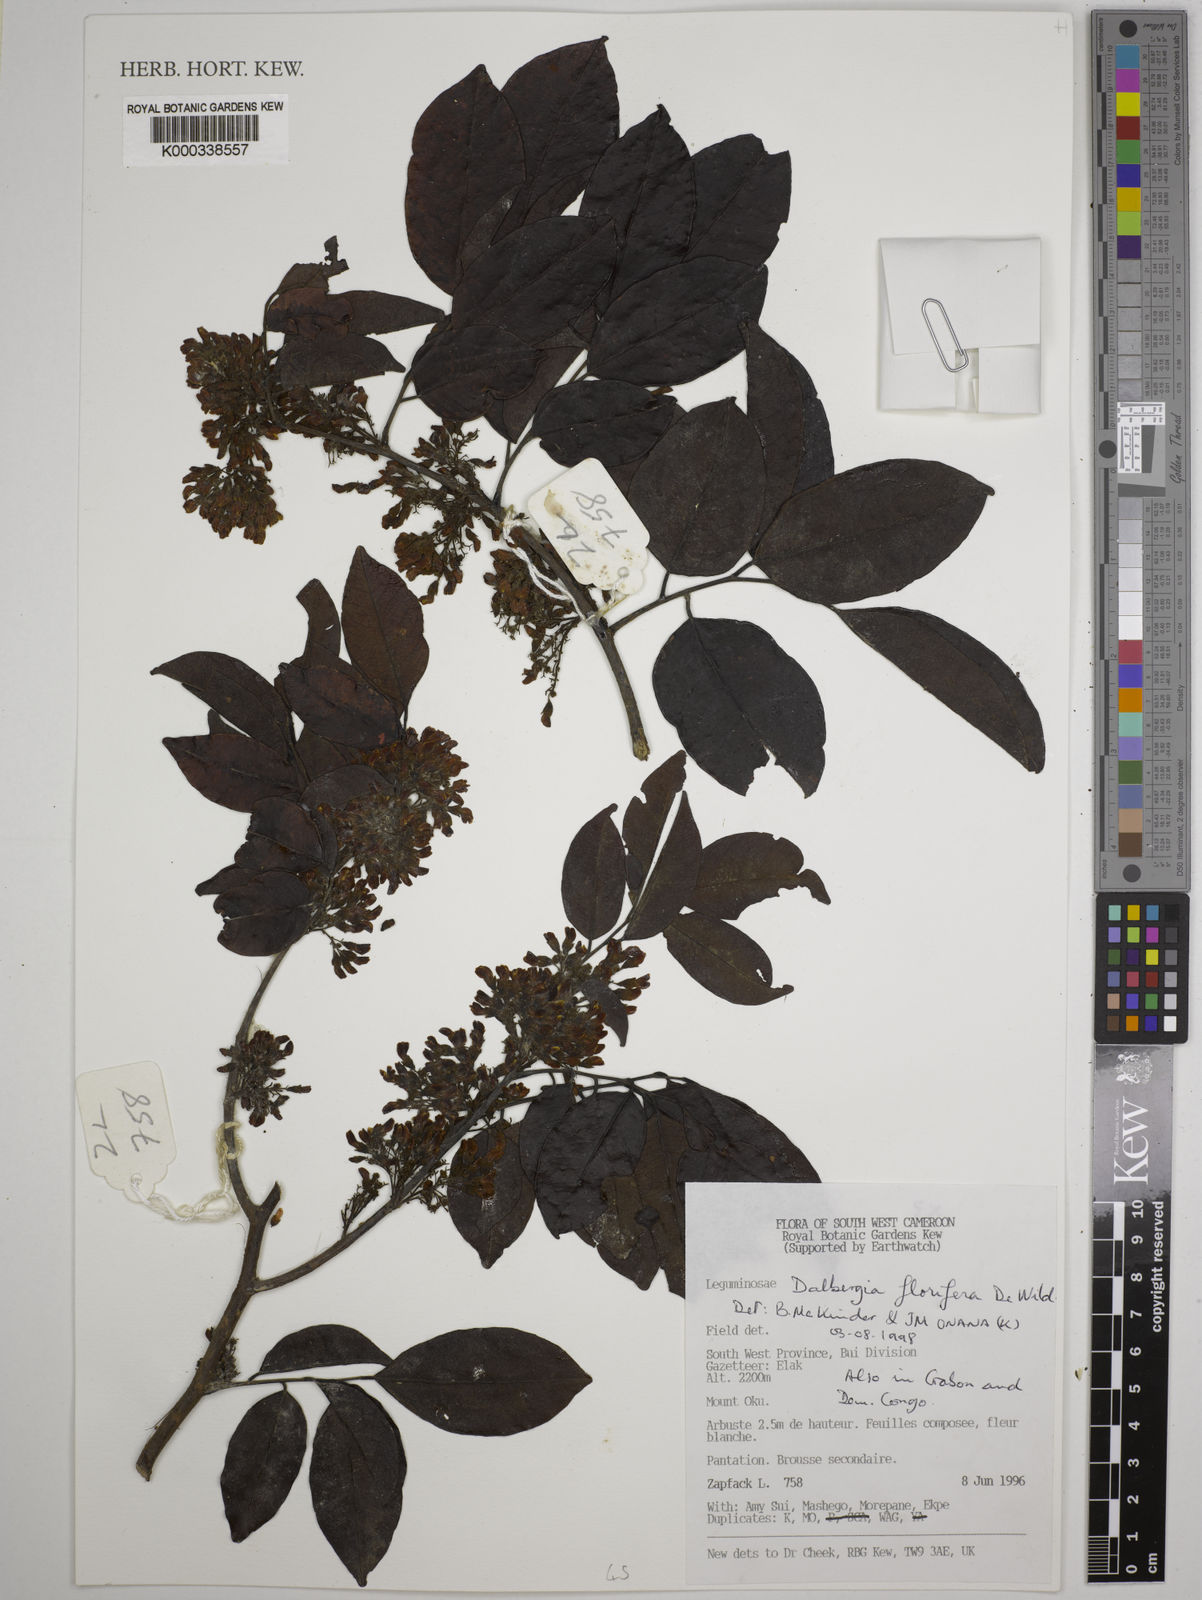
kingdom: Plantae
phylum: Tracheophyta
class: Magnoliopsida
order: Fabales
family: Fabaceae
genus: Dalbergia
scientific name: Dalbergia florifera
